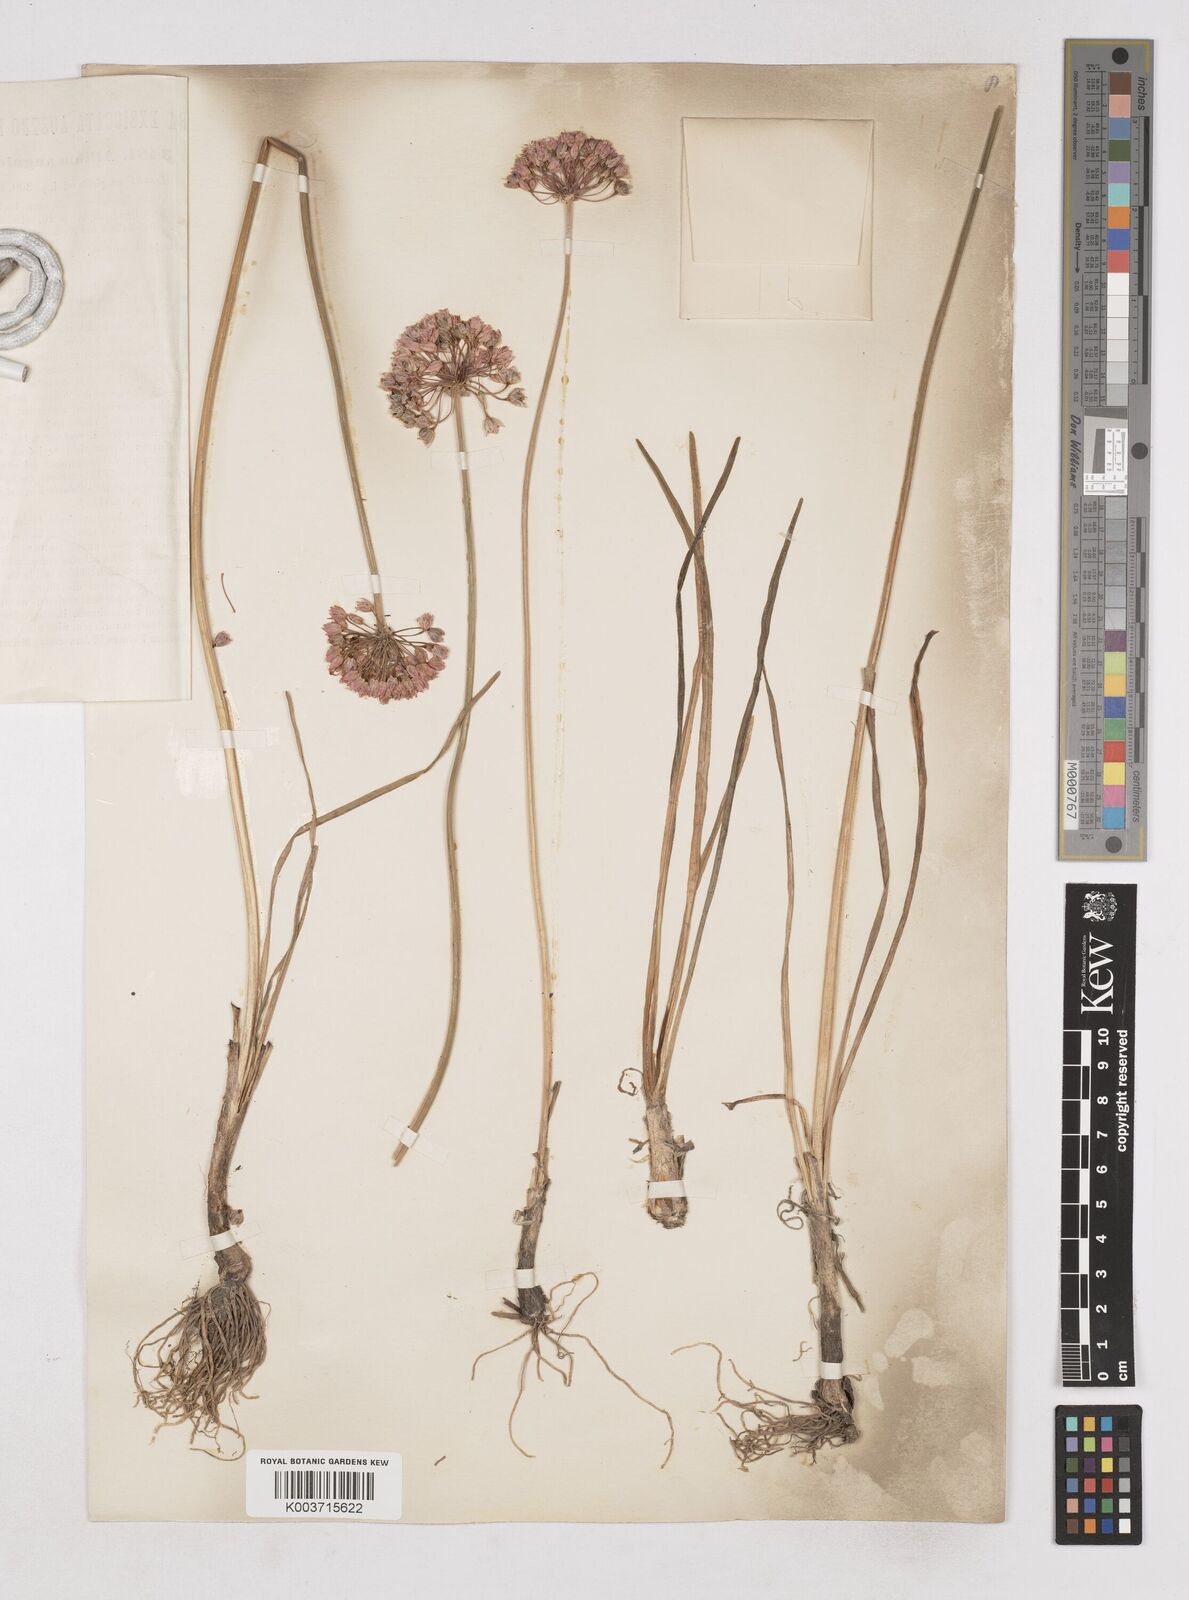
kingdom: Plantae
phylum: Tracheophyta
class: Liliopsida
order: Asparagales
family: Amaryllidaceae
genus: Allium
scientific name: Allium angulosum
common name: Mouse garlic
